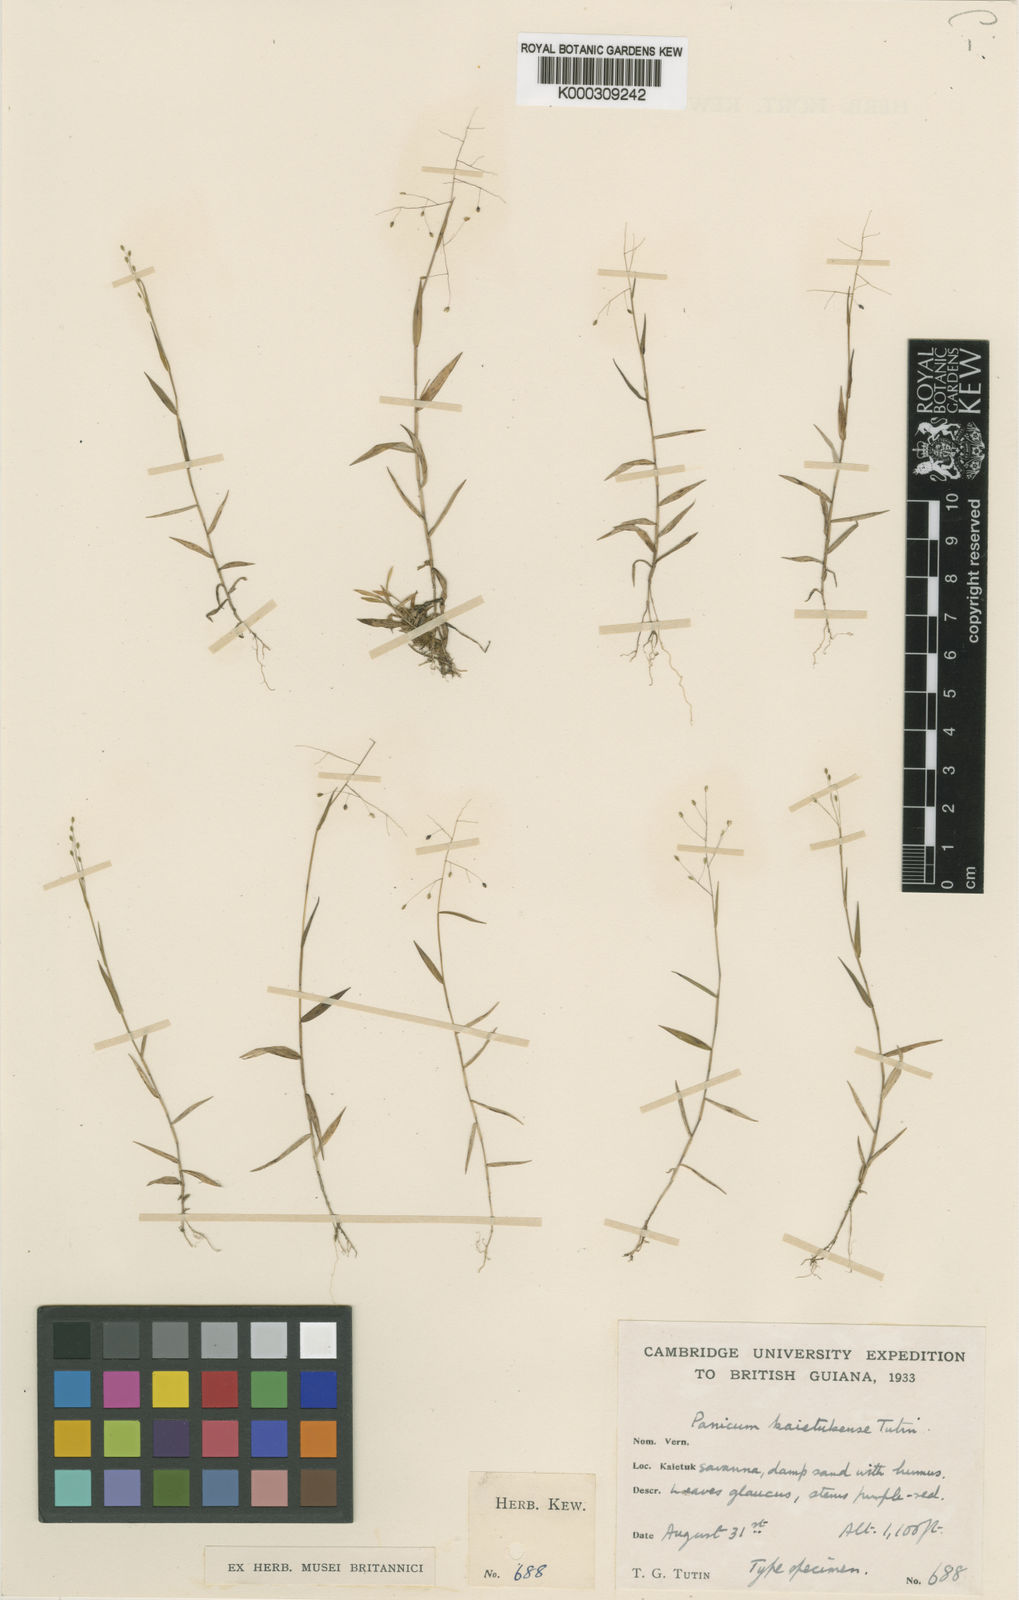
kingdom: Plantae
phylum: Tracheophyta
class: Liliopsida
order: Poales
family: Poaceae
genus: Trichanthecium
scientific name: Trichanthecium parvifolium
